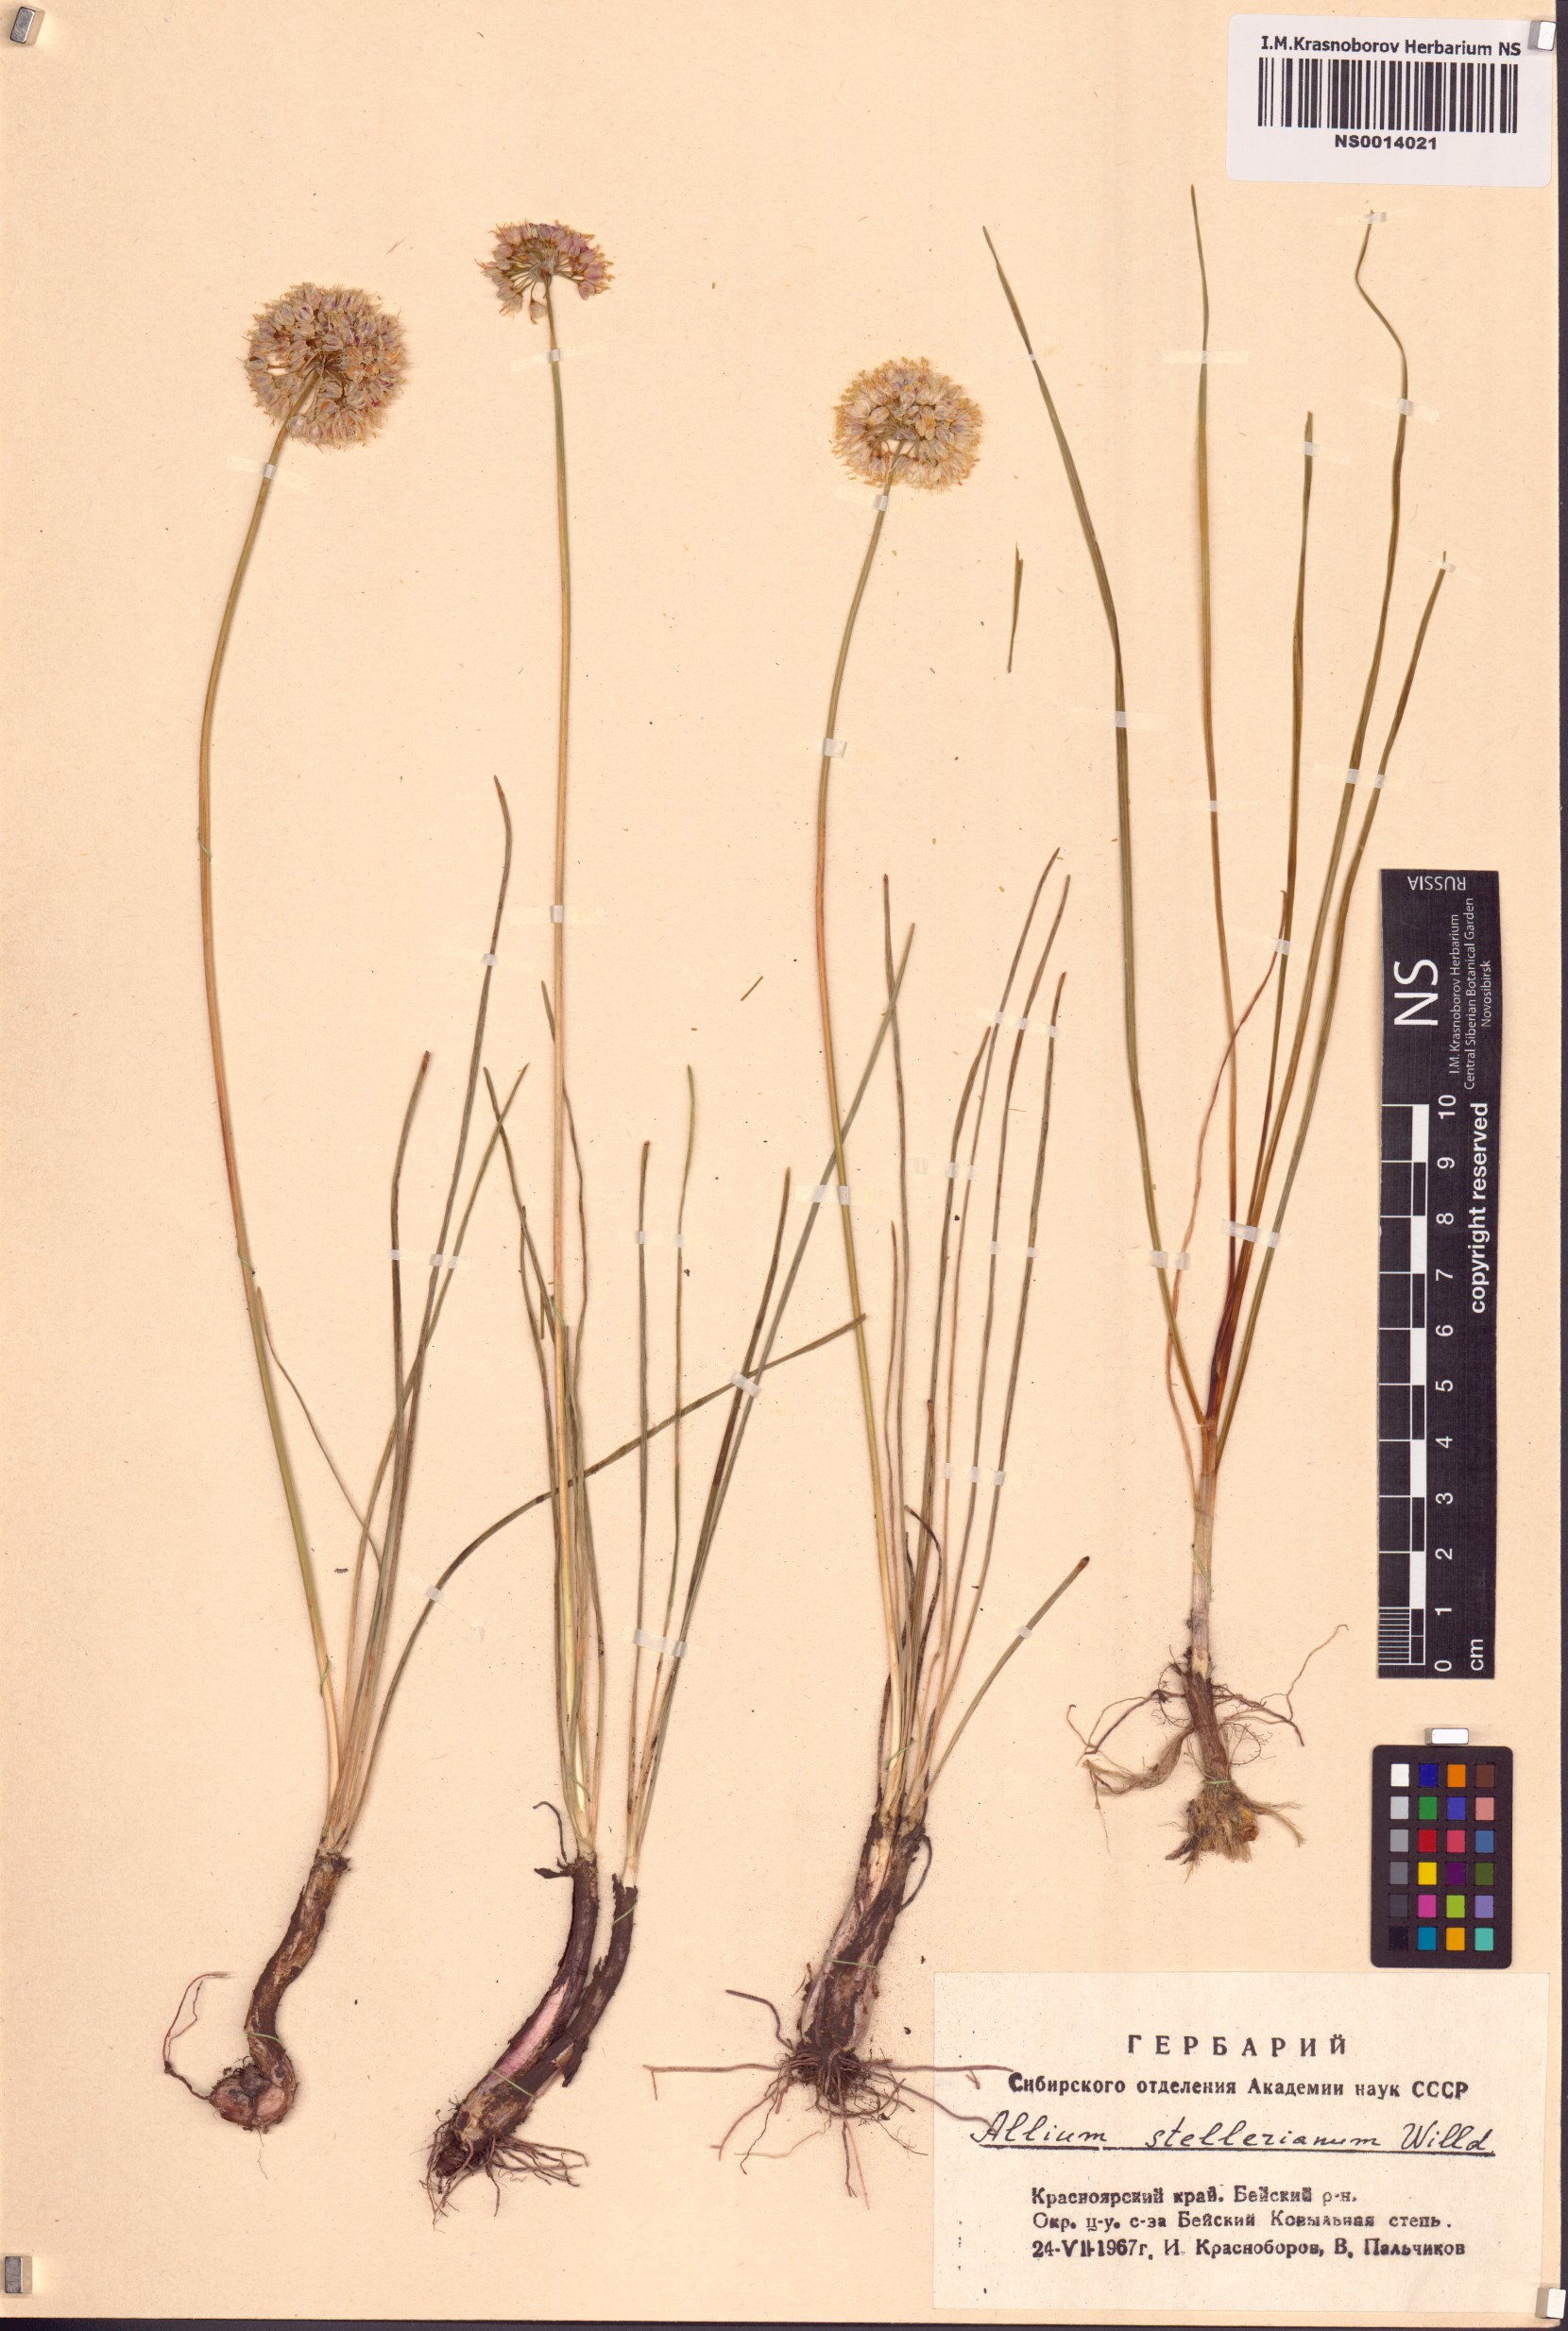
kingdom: Plantae
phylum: Tracheophyta
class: Liliopsida
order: Asparagales
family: Amaryllidaceae
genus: Allium
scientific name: Allium stellerianum
